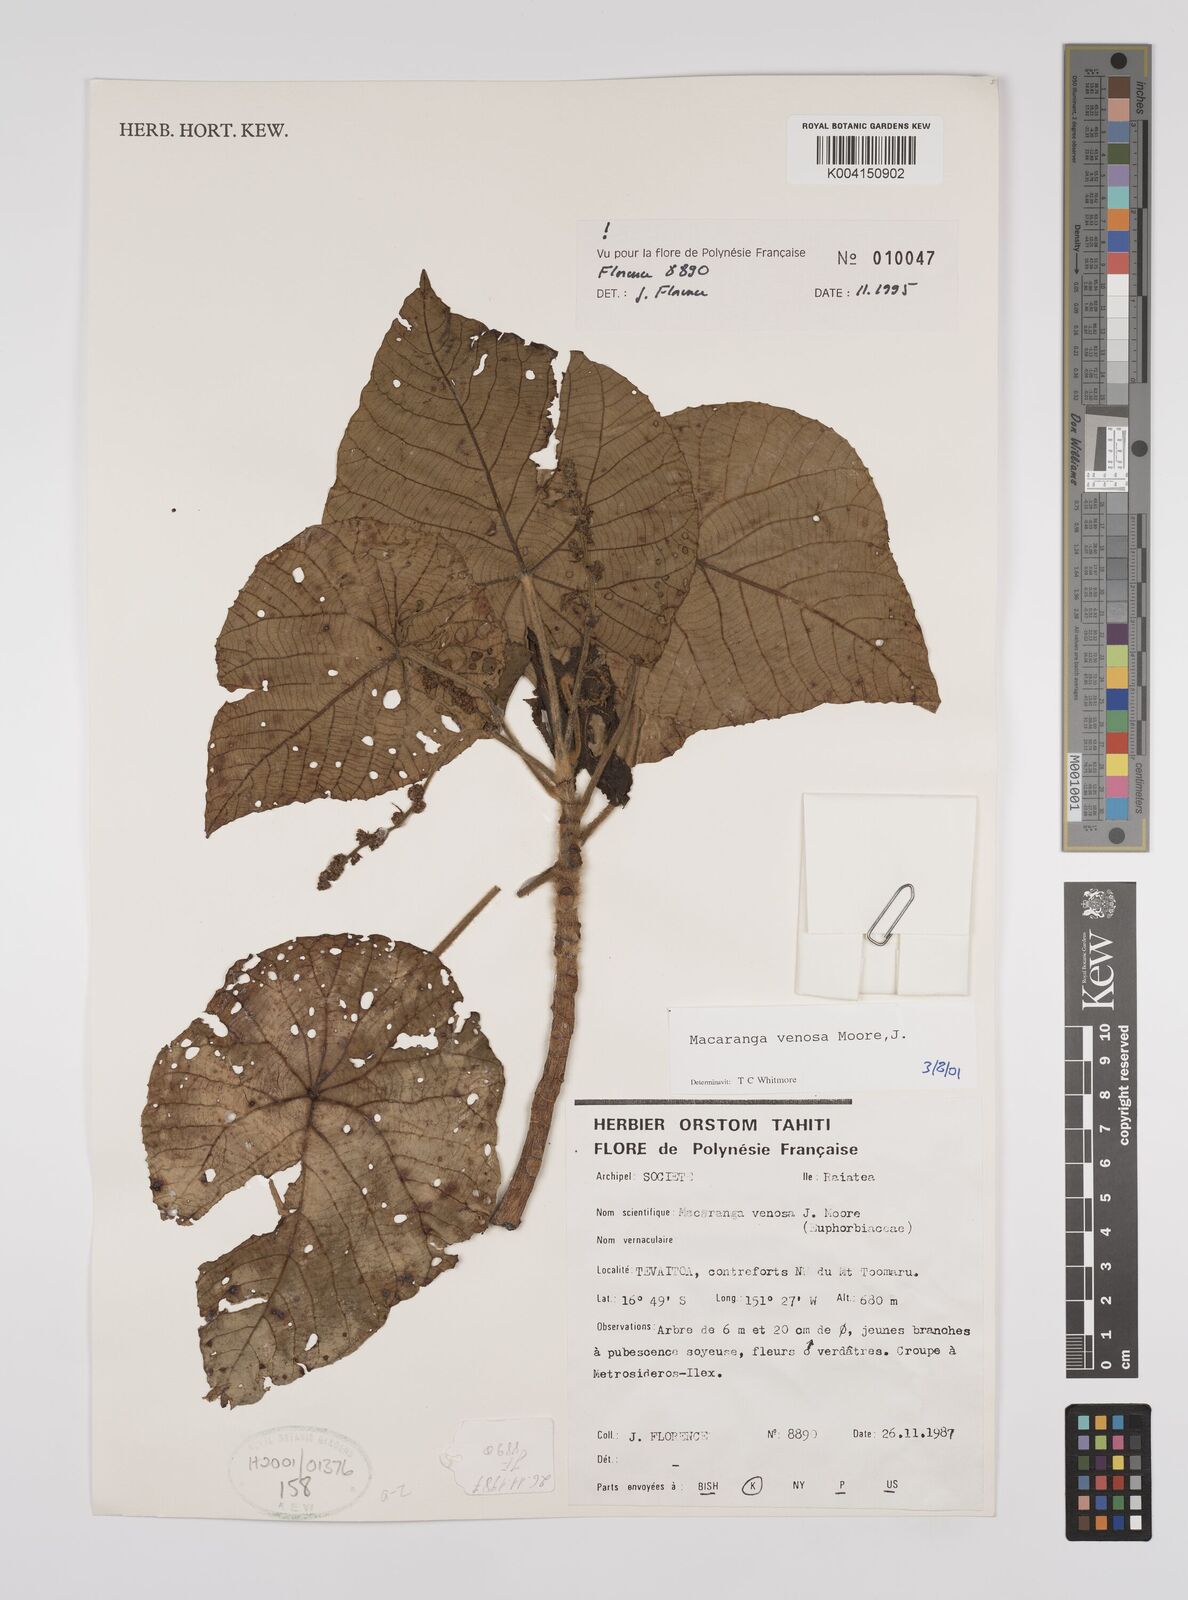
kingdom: Plantae
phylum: Tracheophyta
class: Magnoliopsida
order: Malpighiales
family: Euphorbiaceae
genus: Macaranga
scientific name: Macaranga venosa
